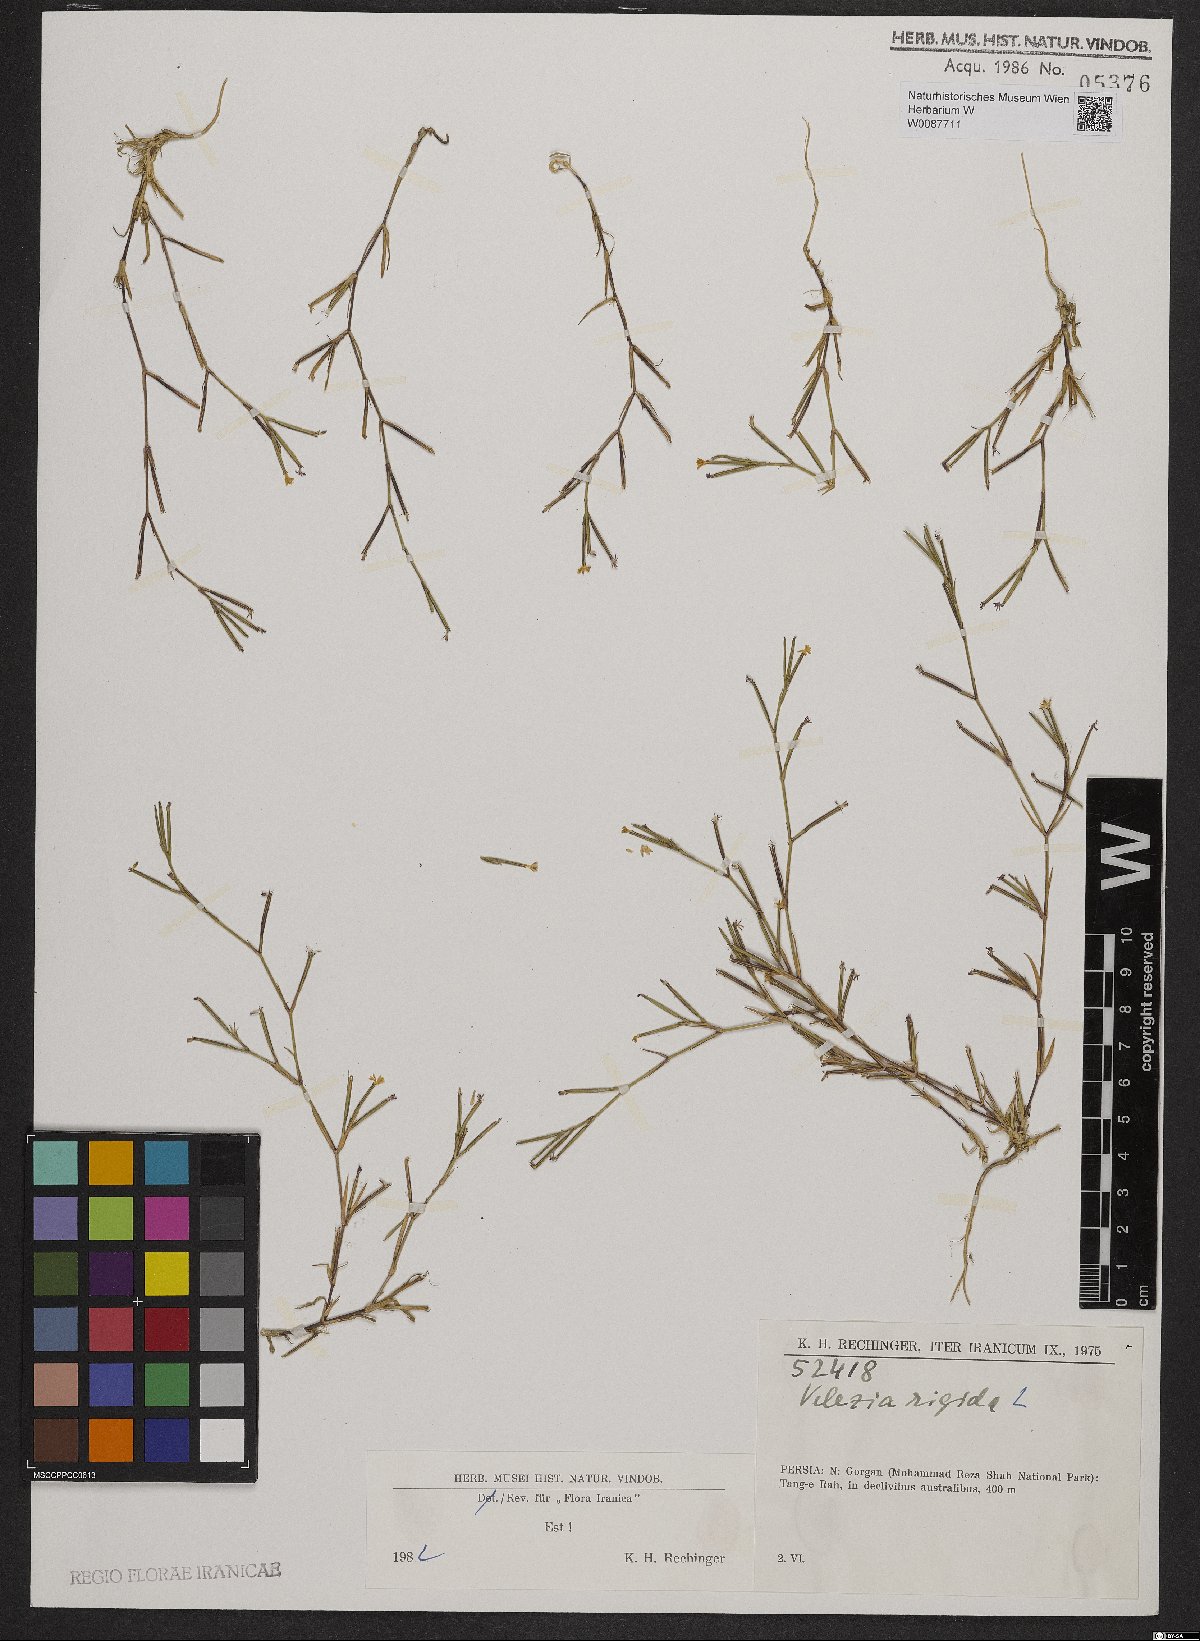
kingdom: Plantae
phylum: Tracheophyta
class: Magnoliopsida
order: Caryophyllales
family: Caryophyllaceae
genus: Dianthus
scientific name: Dianthus nudiflorus
